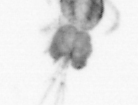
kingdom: Animalia
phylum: Arthropoda
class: Copepoda
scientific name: Copepoda
